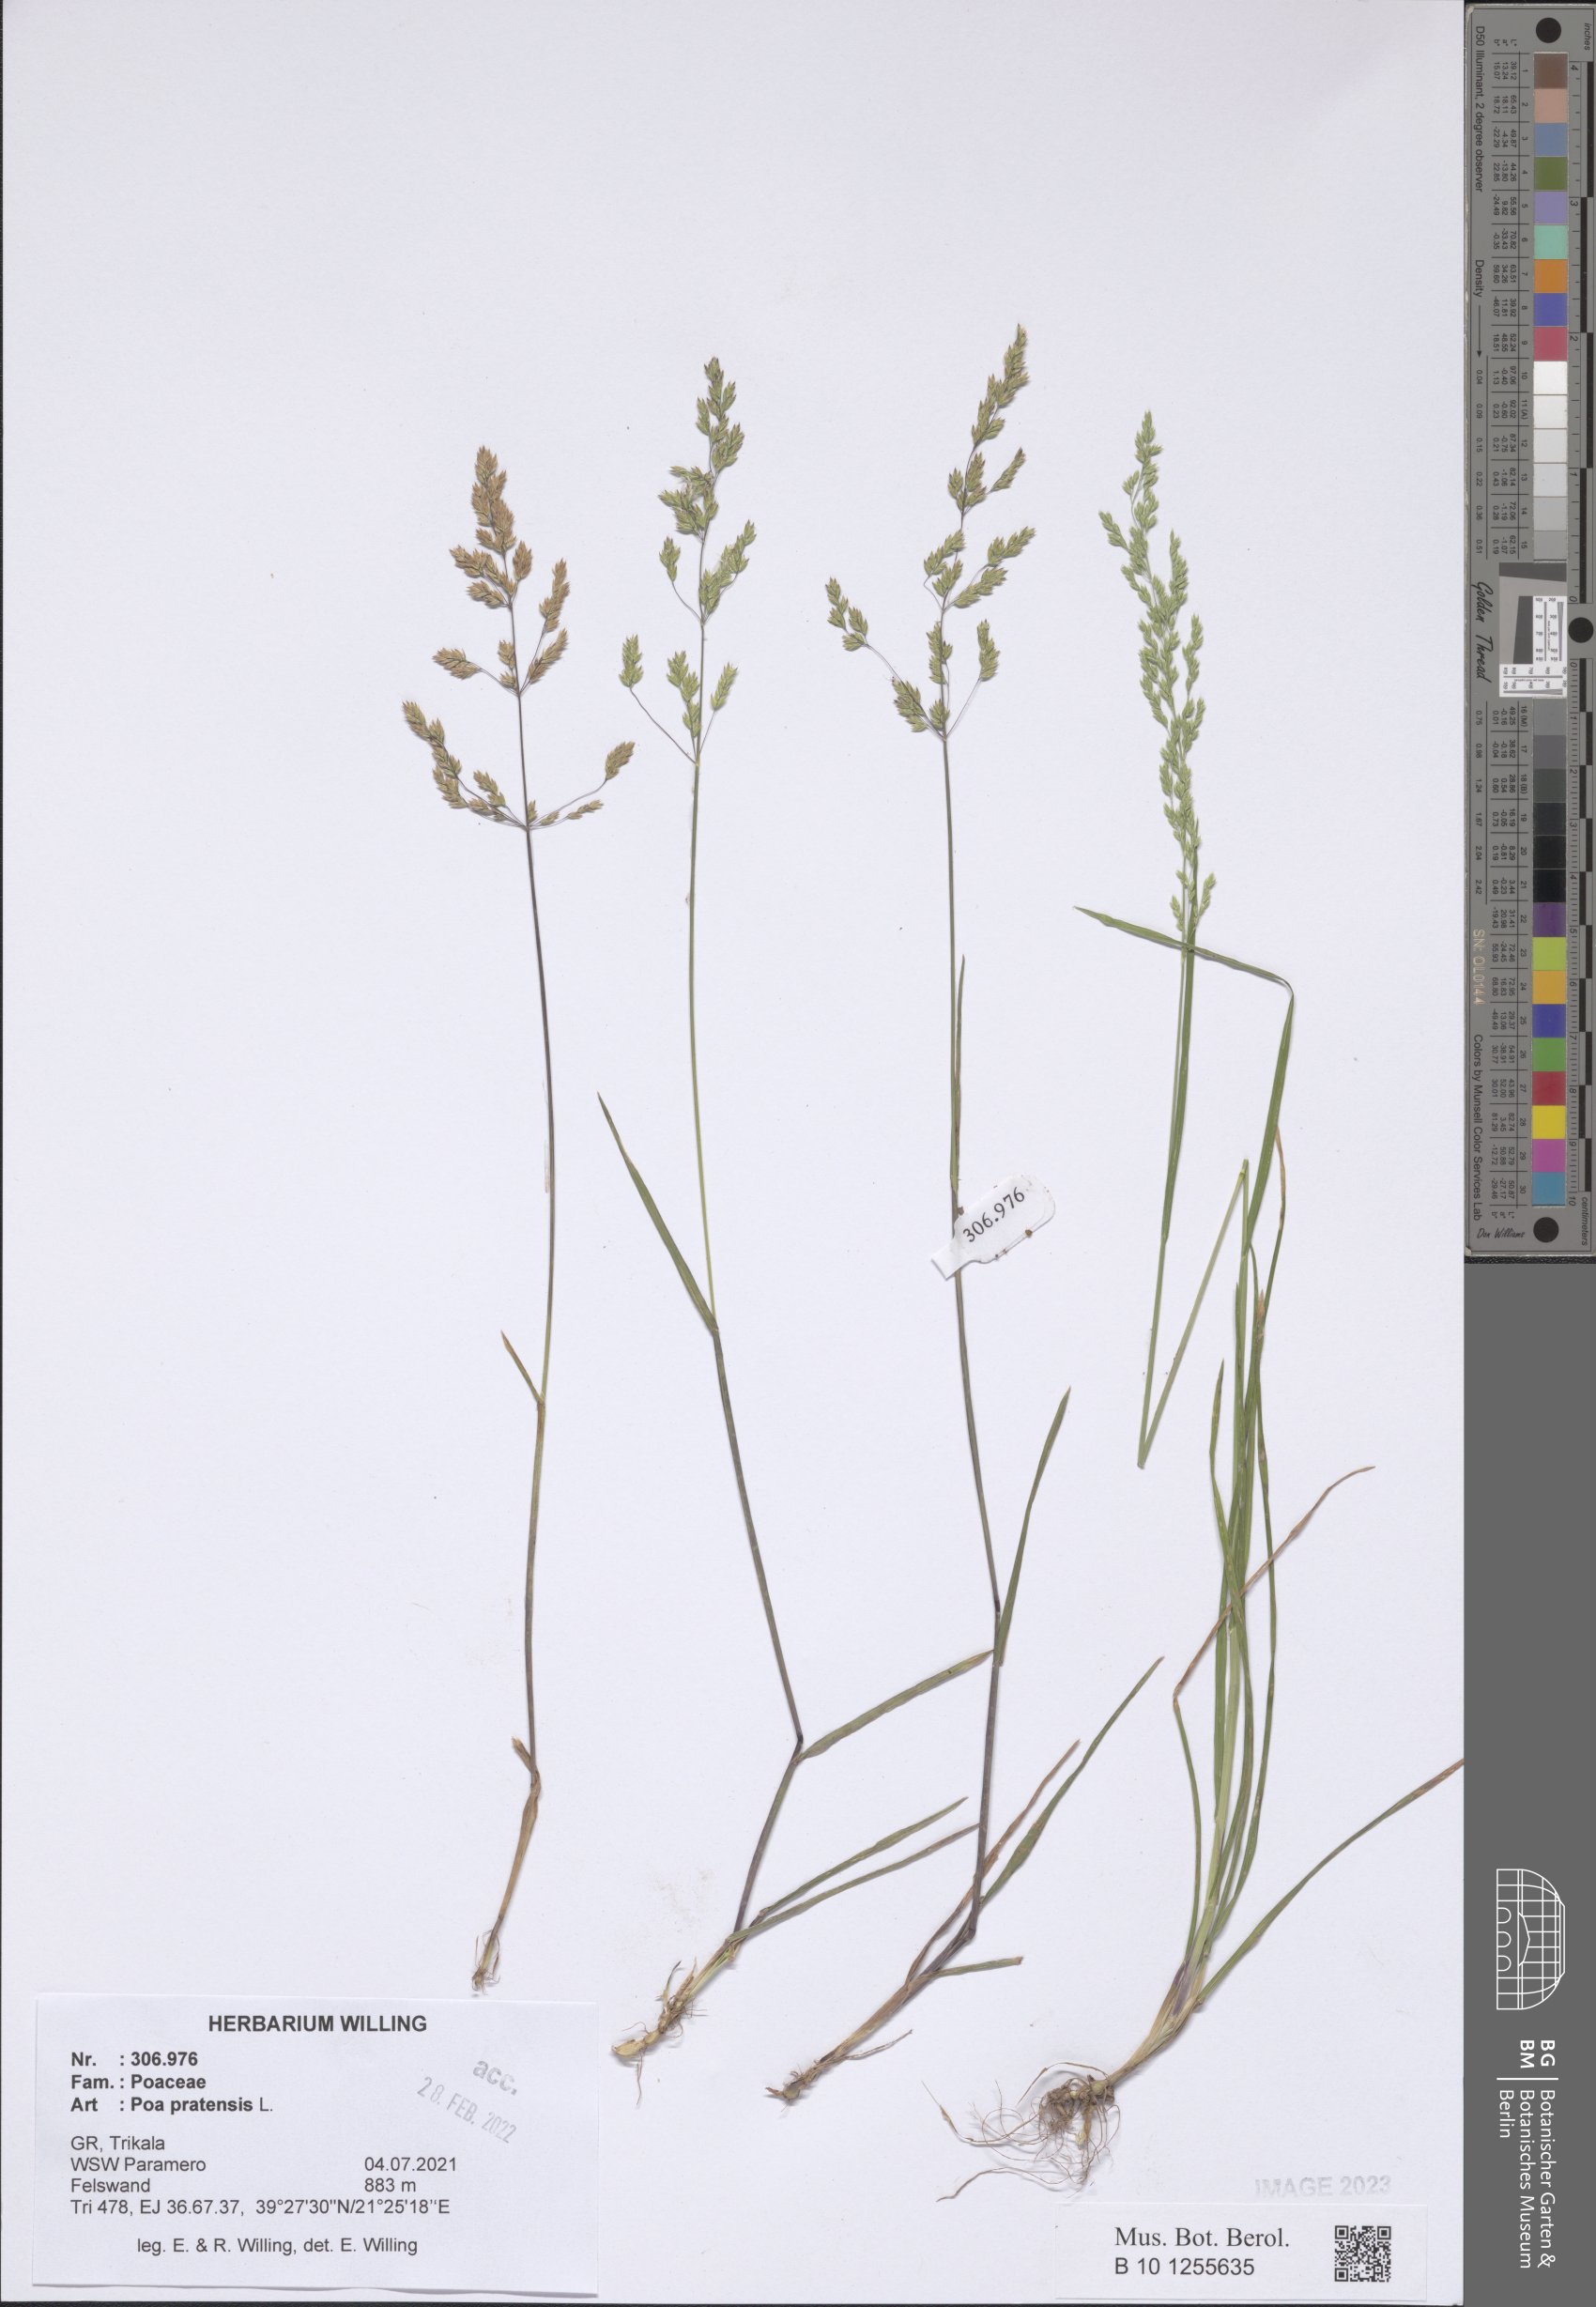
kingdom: Plantae
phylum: Tracheophyta
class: Liliopsida
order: Poales
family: Poaceae
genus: Poa
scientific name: Poa pratensis
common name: Kentucky bluegrass
